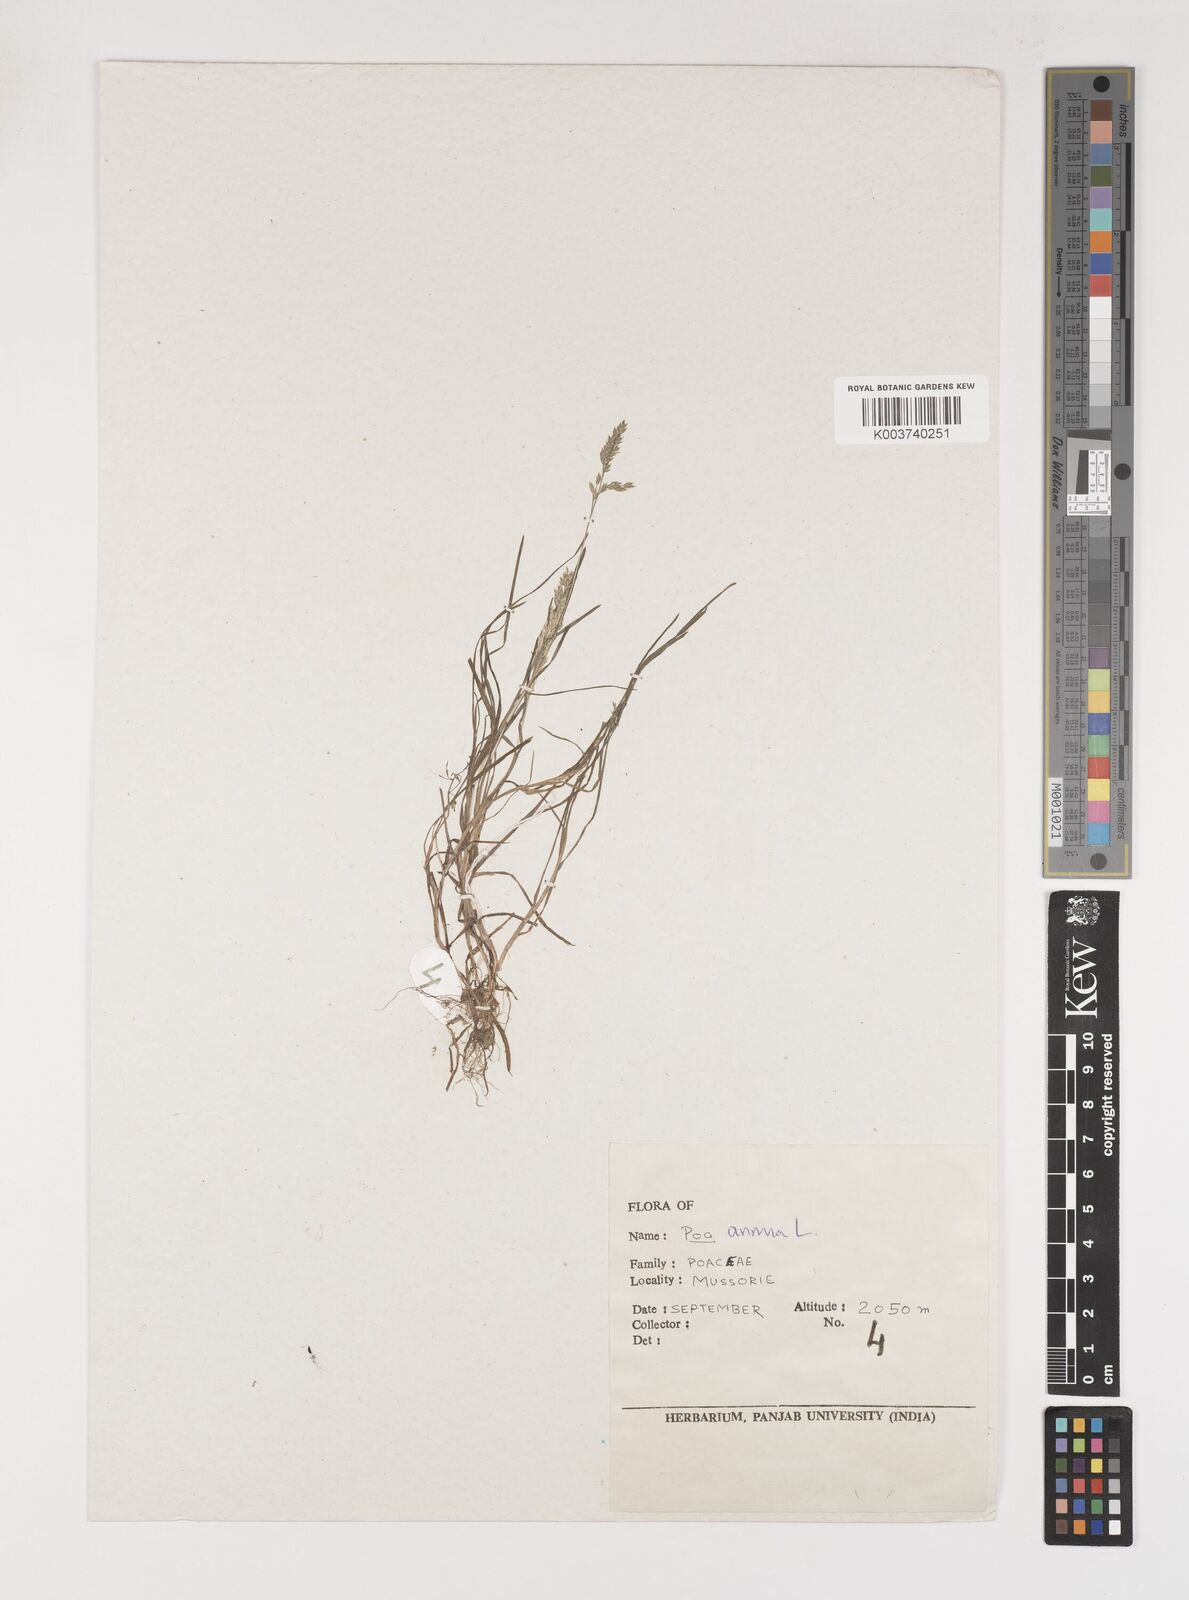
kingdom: Plantae
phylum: Tracheophyta
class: Liliopsida
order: Poales
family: Poaceae
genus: Poa
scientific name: Poa annua
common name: Annual bluegrass
